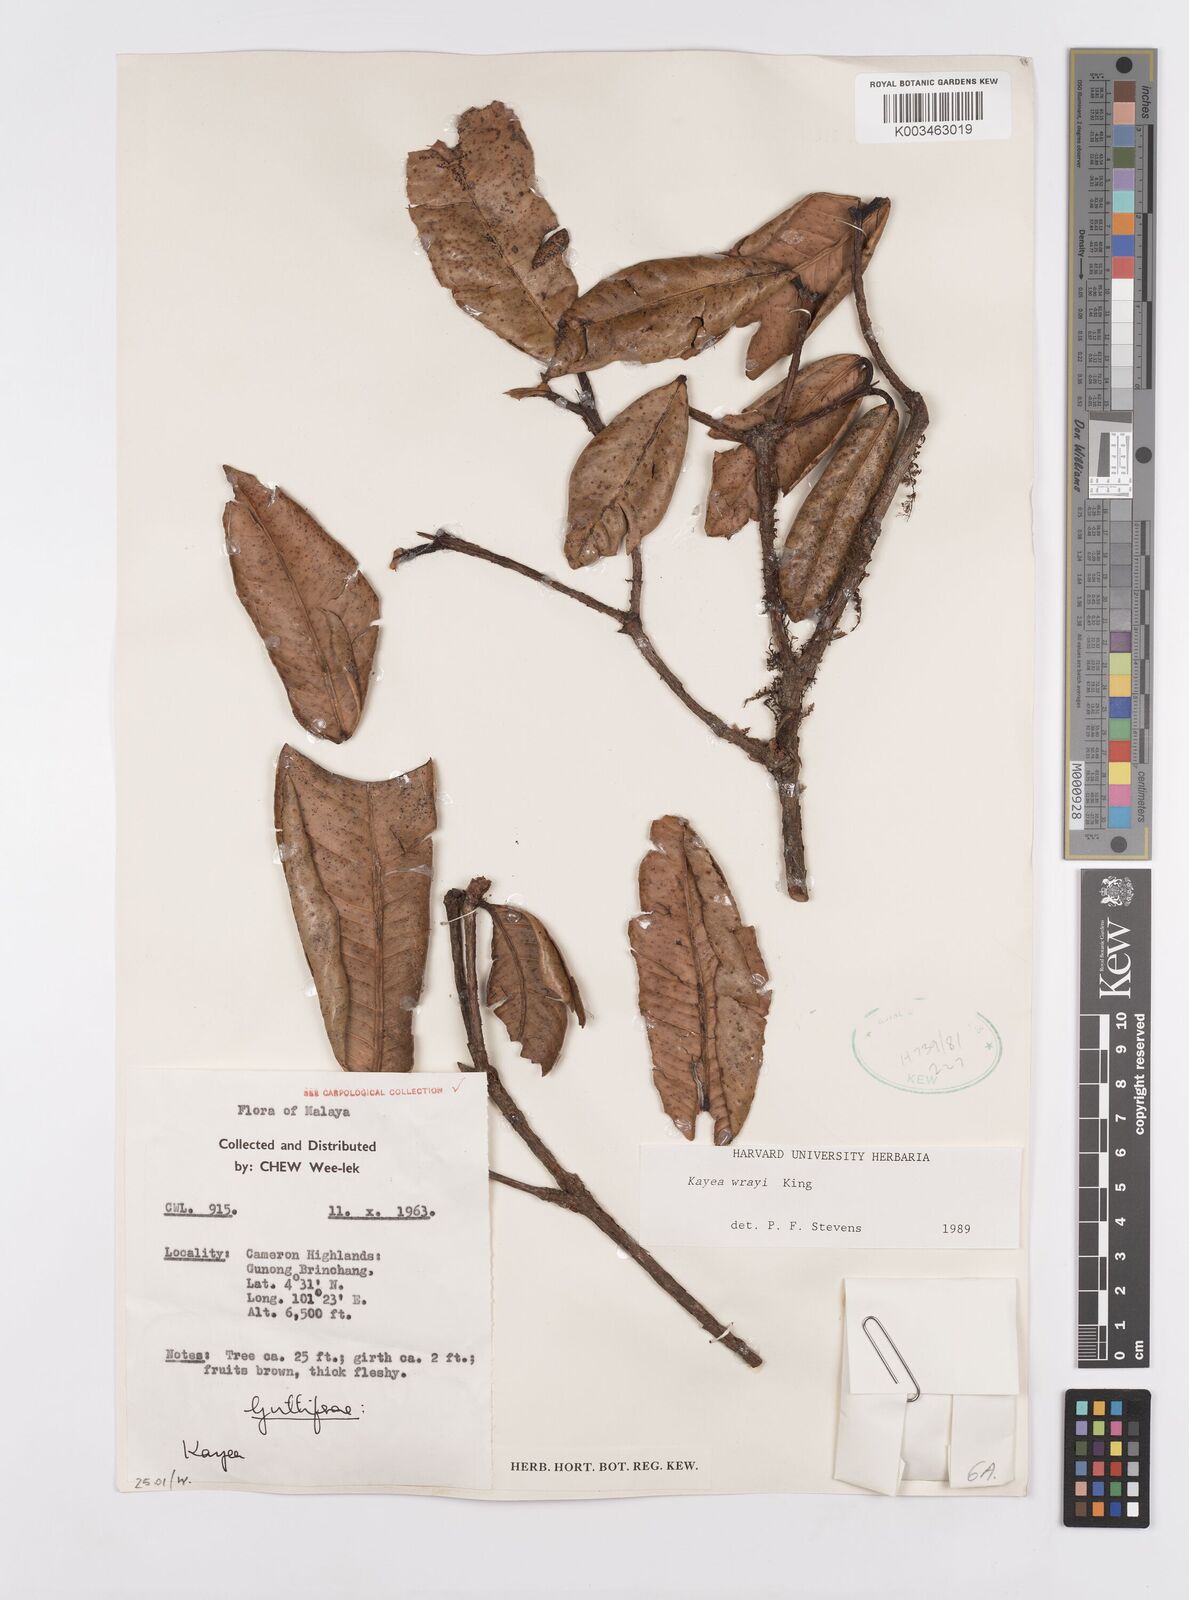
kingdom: Plantae
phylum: Tracheophyta
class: Magnoliopsida
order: Malpighiales
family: Calophyllaceae
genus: Kayea
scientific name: Kayea wrayi
